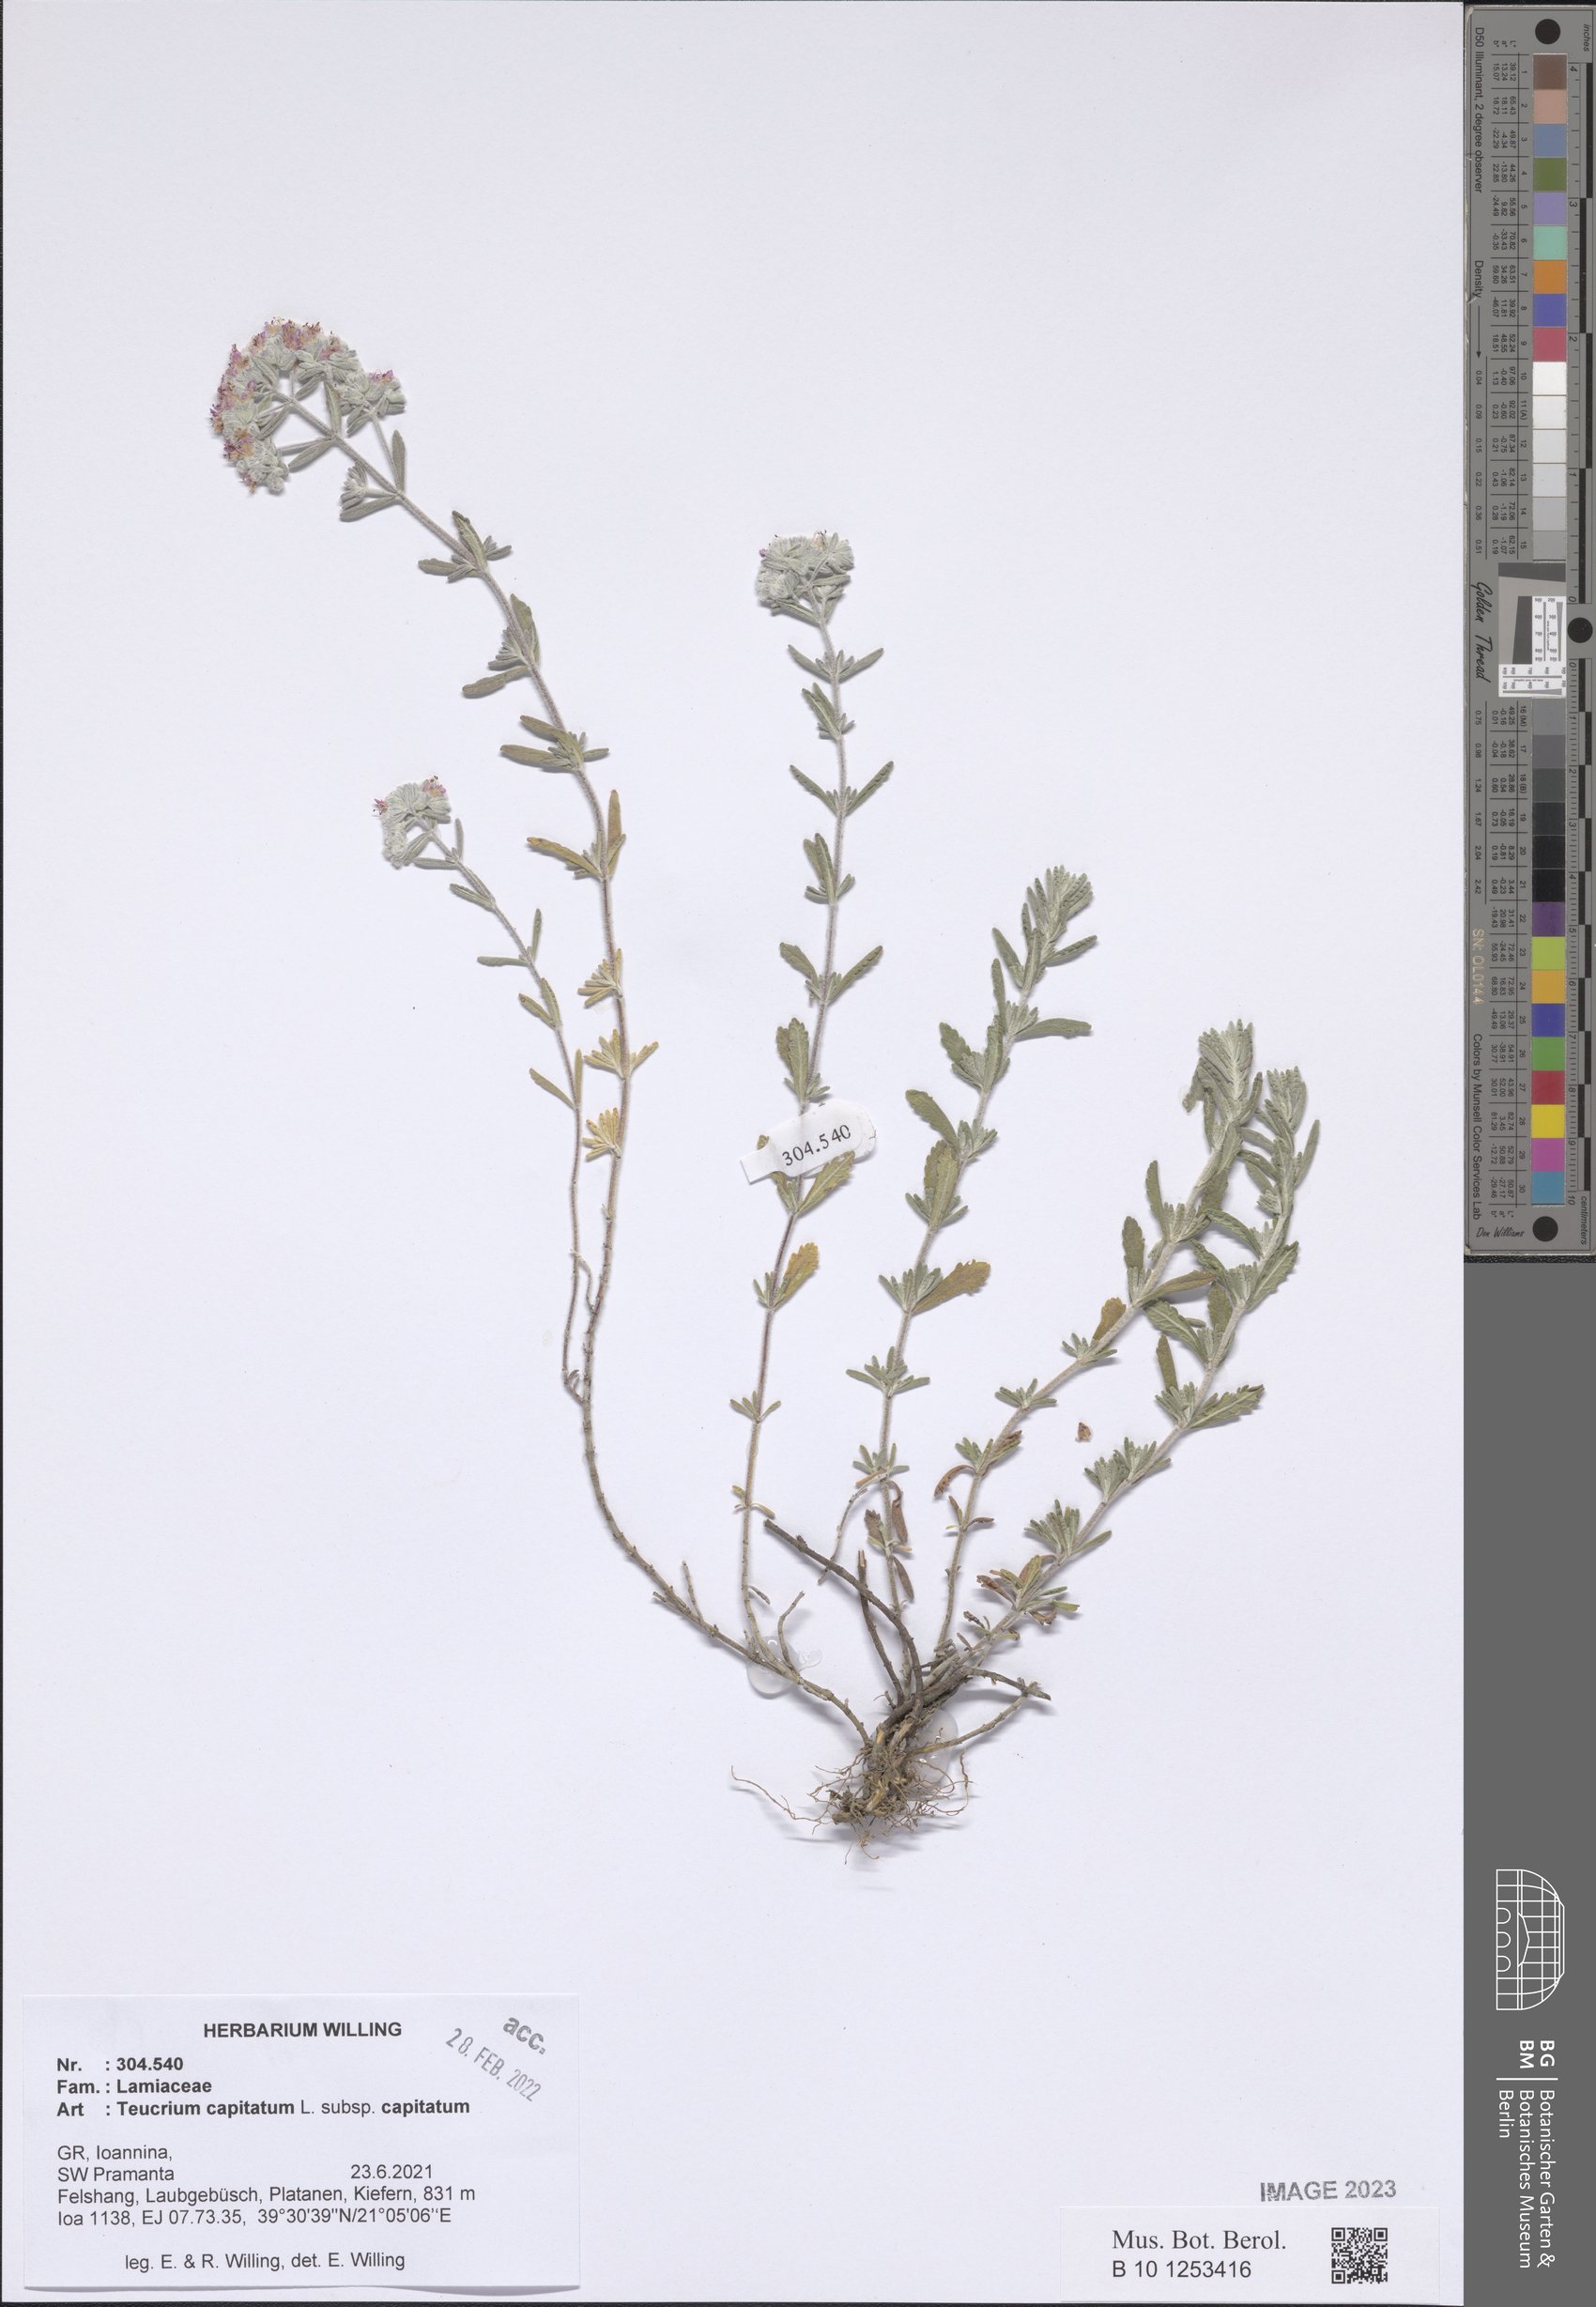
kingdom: Plantae
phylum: Tracheophyta
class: Magnoliopsida
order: Lamiales
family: Lamiaceae
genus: Teucrium
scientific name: Teucrium capitatum
